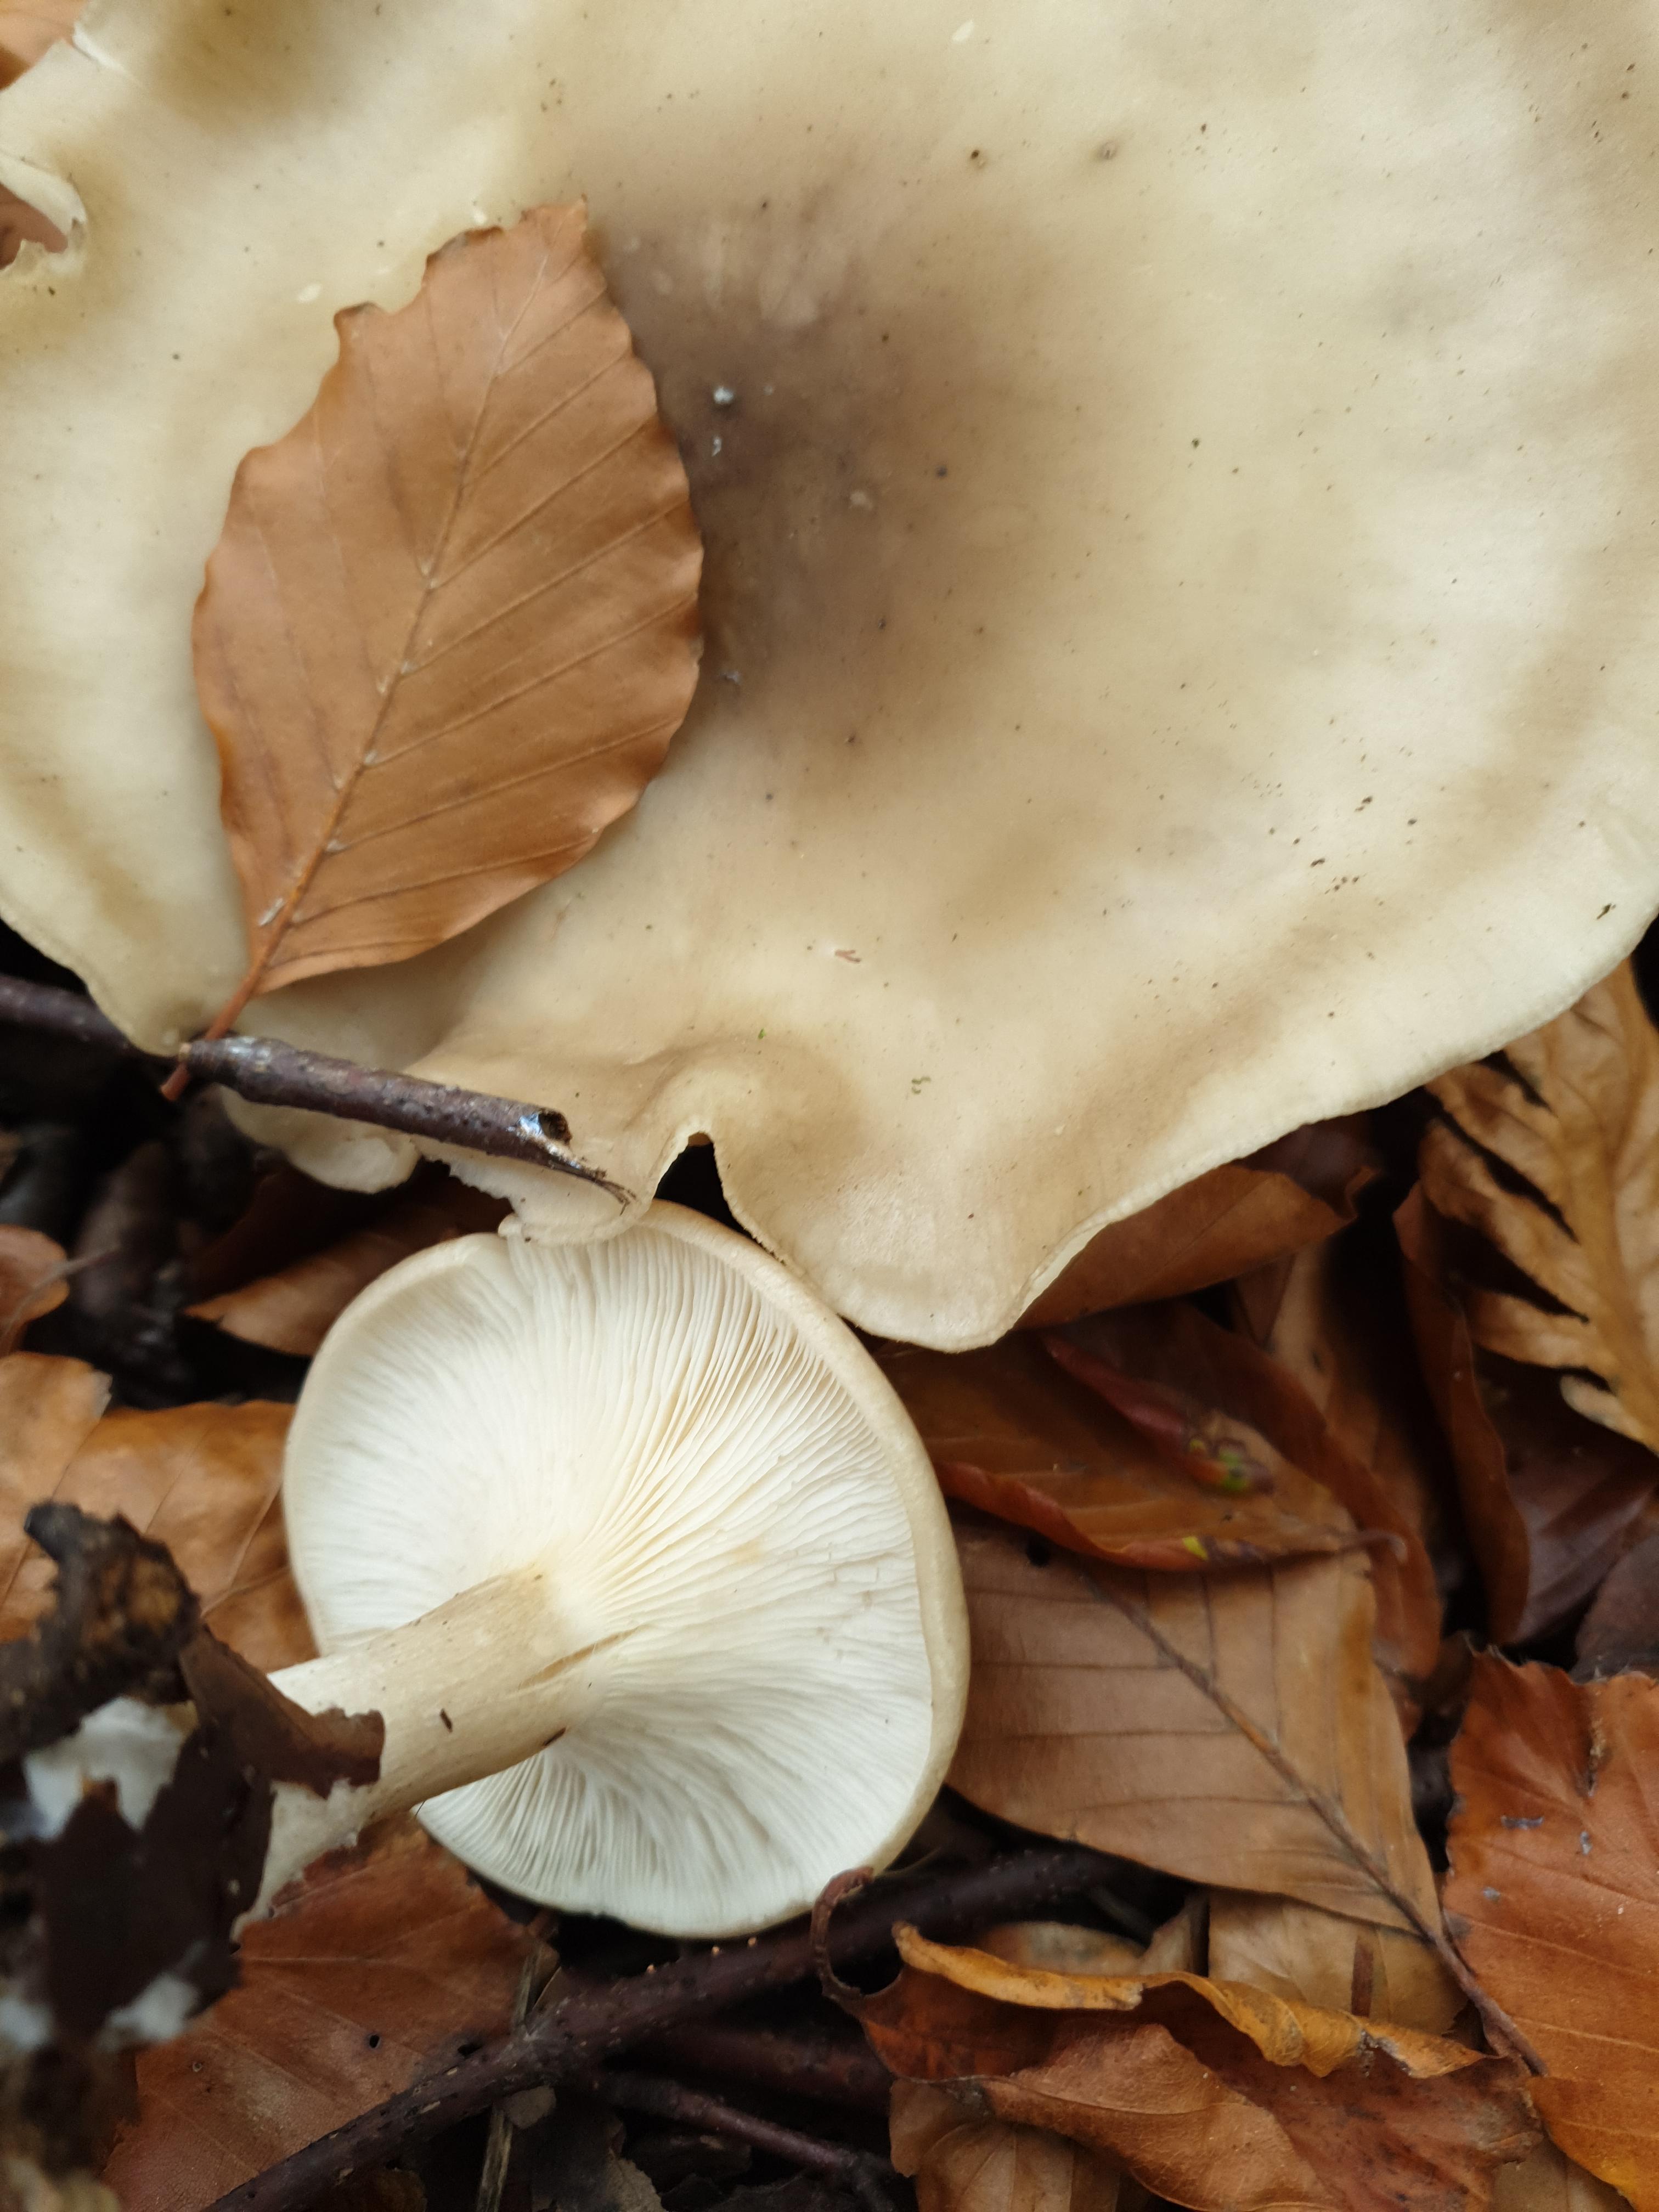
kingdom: Fungi
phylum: Basidiomycota
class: Agaricomycetes
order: Agaricales
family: Tricholomataceae
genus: Clitocybe
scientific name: Clitocybe nebularis
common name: tåge-tragthat
